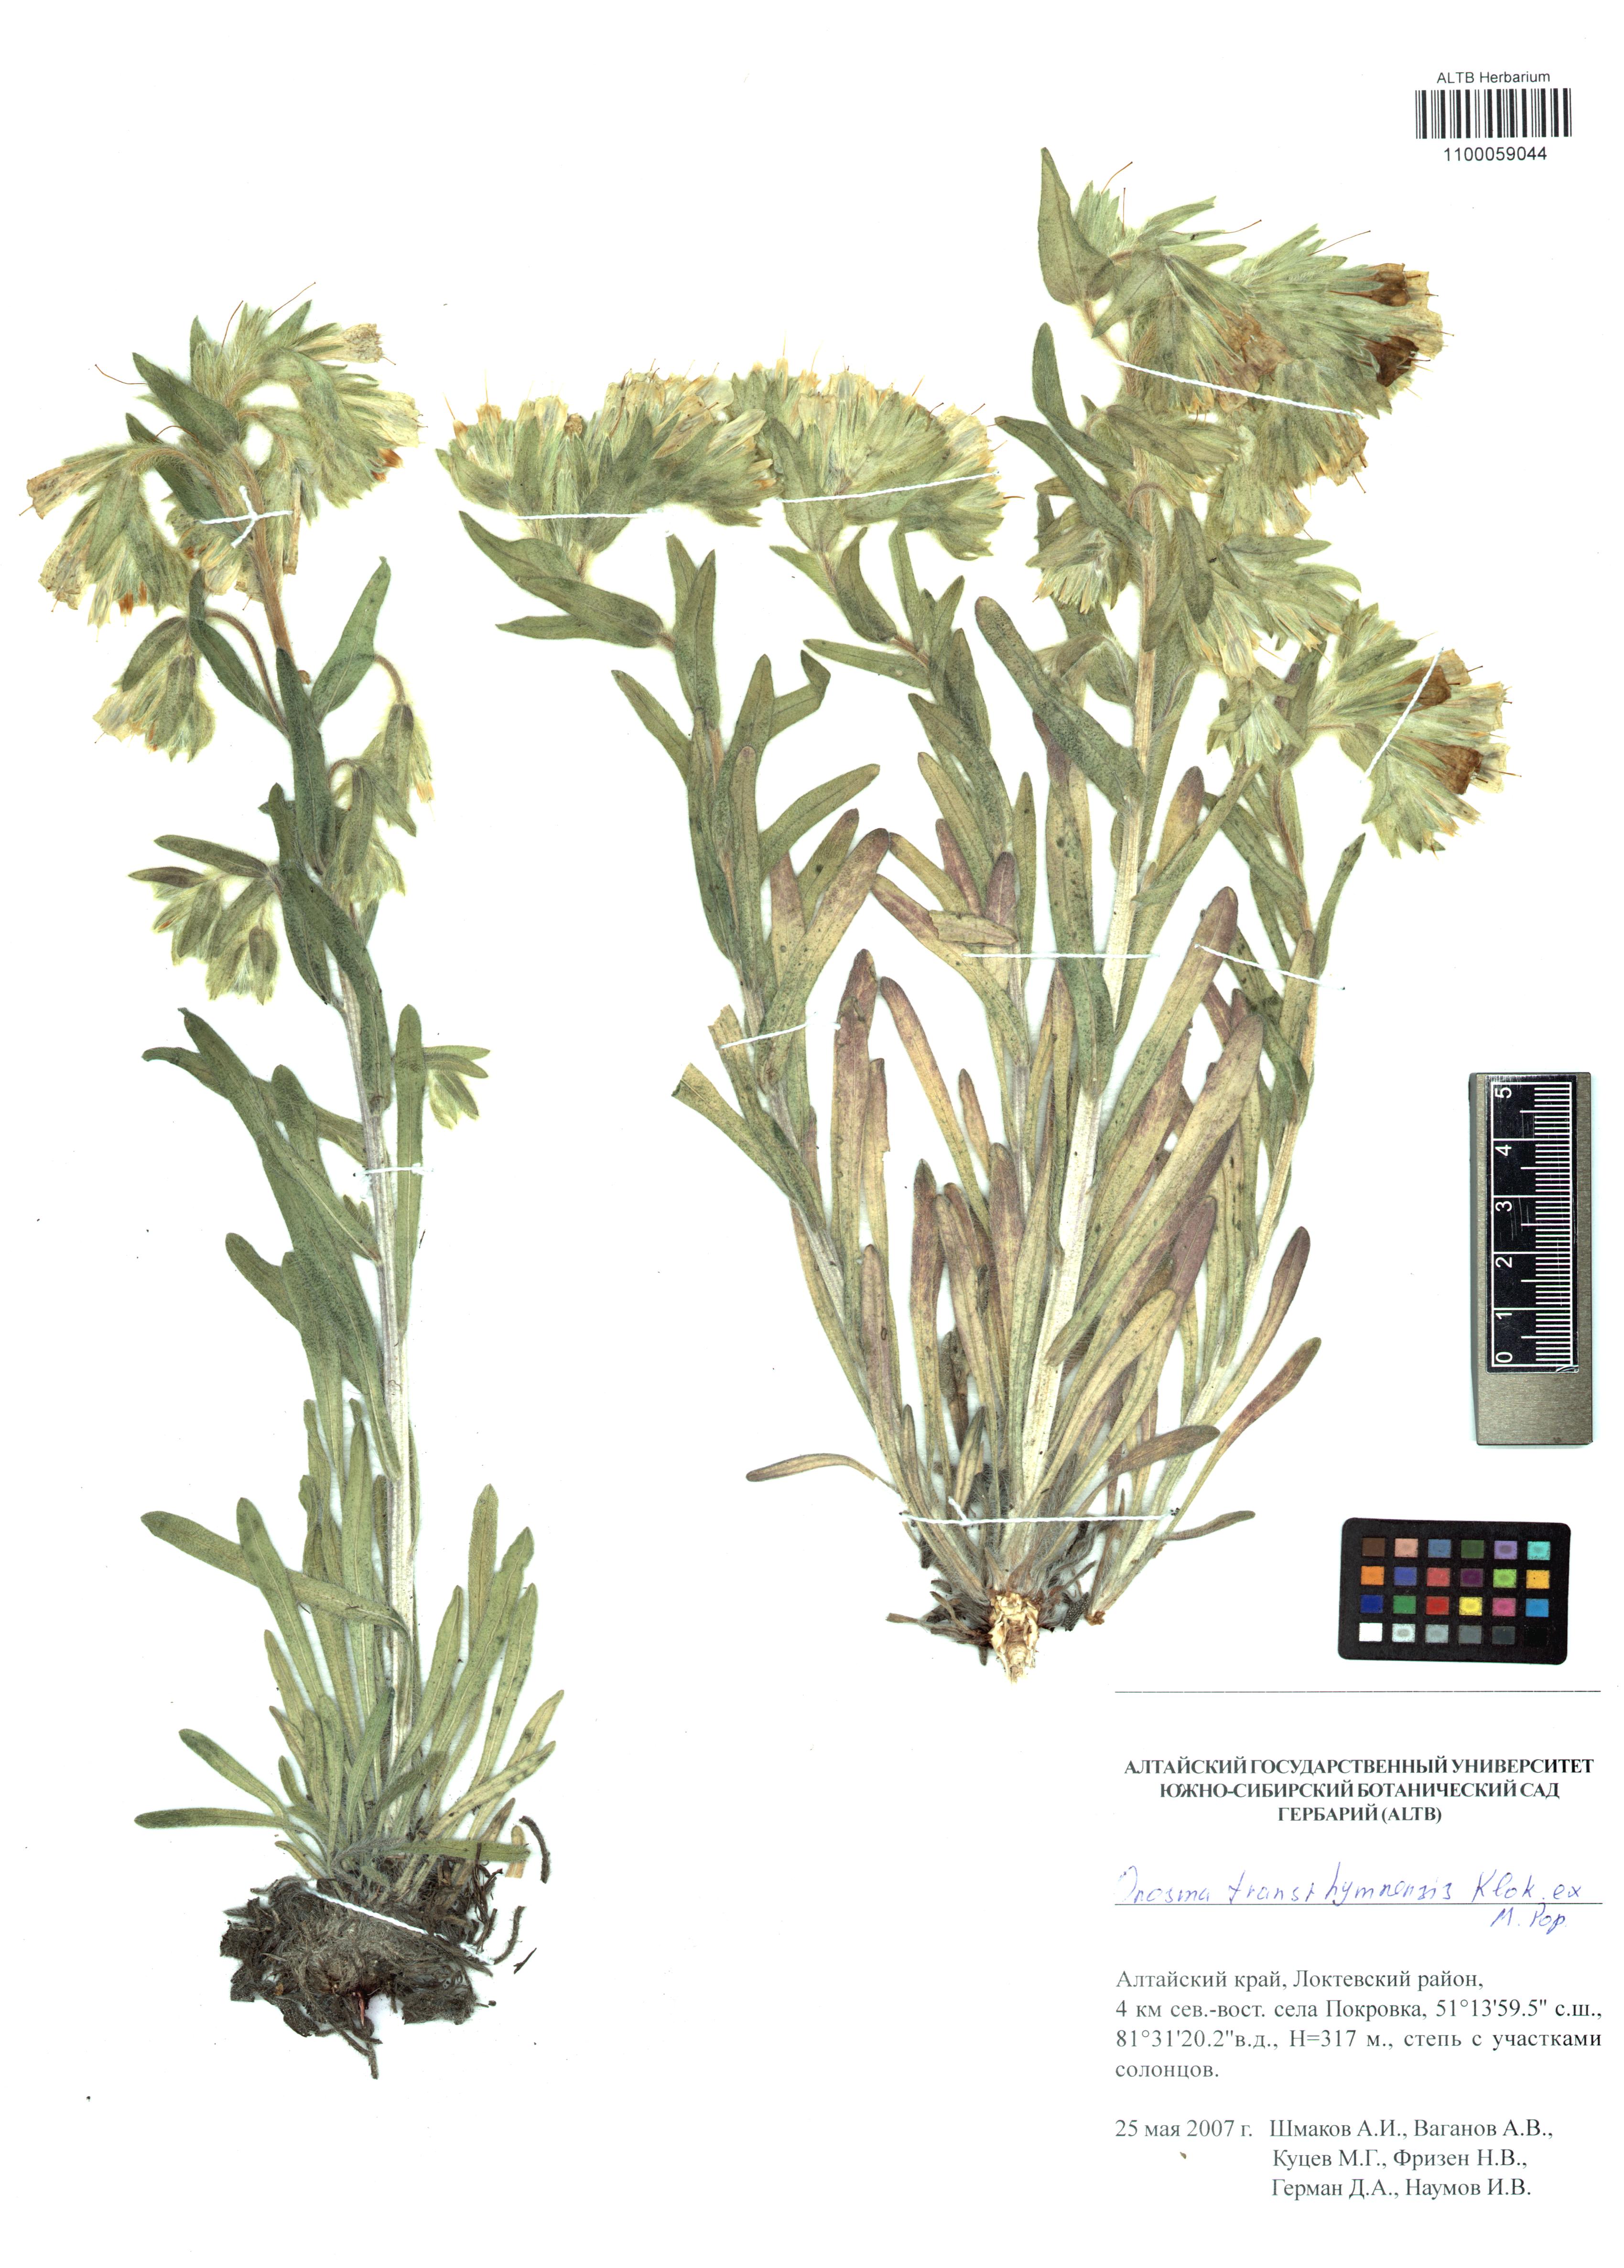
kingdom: Plantae
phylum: Tracheophyta
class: Magnoliopsida
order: Boraginales
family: Boraginaceae
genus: Onosma
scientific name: Onosma setosa
